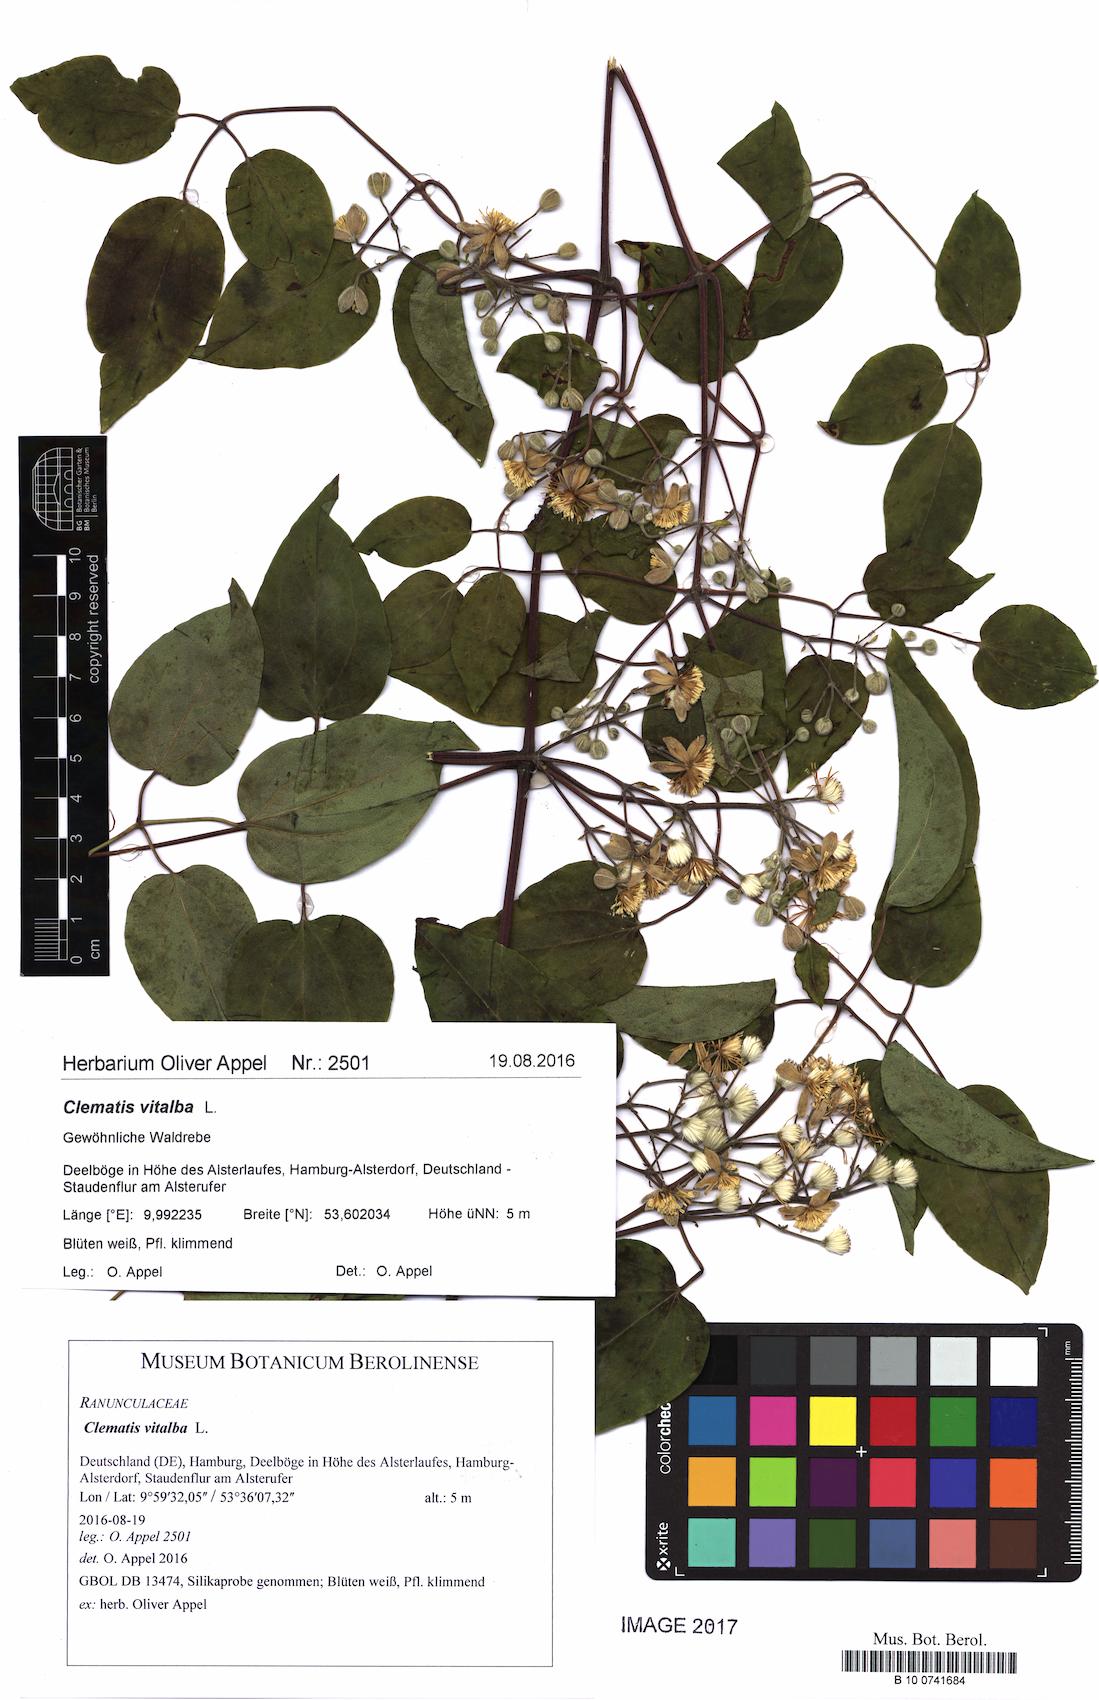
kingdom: Plantae
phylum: Tracheophyta
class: Magnoliopsida
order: Ranunculales
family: Ranunculaceae
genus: Clematis
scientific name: Clematis vitalba
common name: Evergreen clematis
